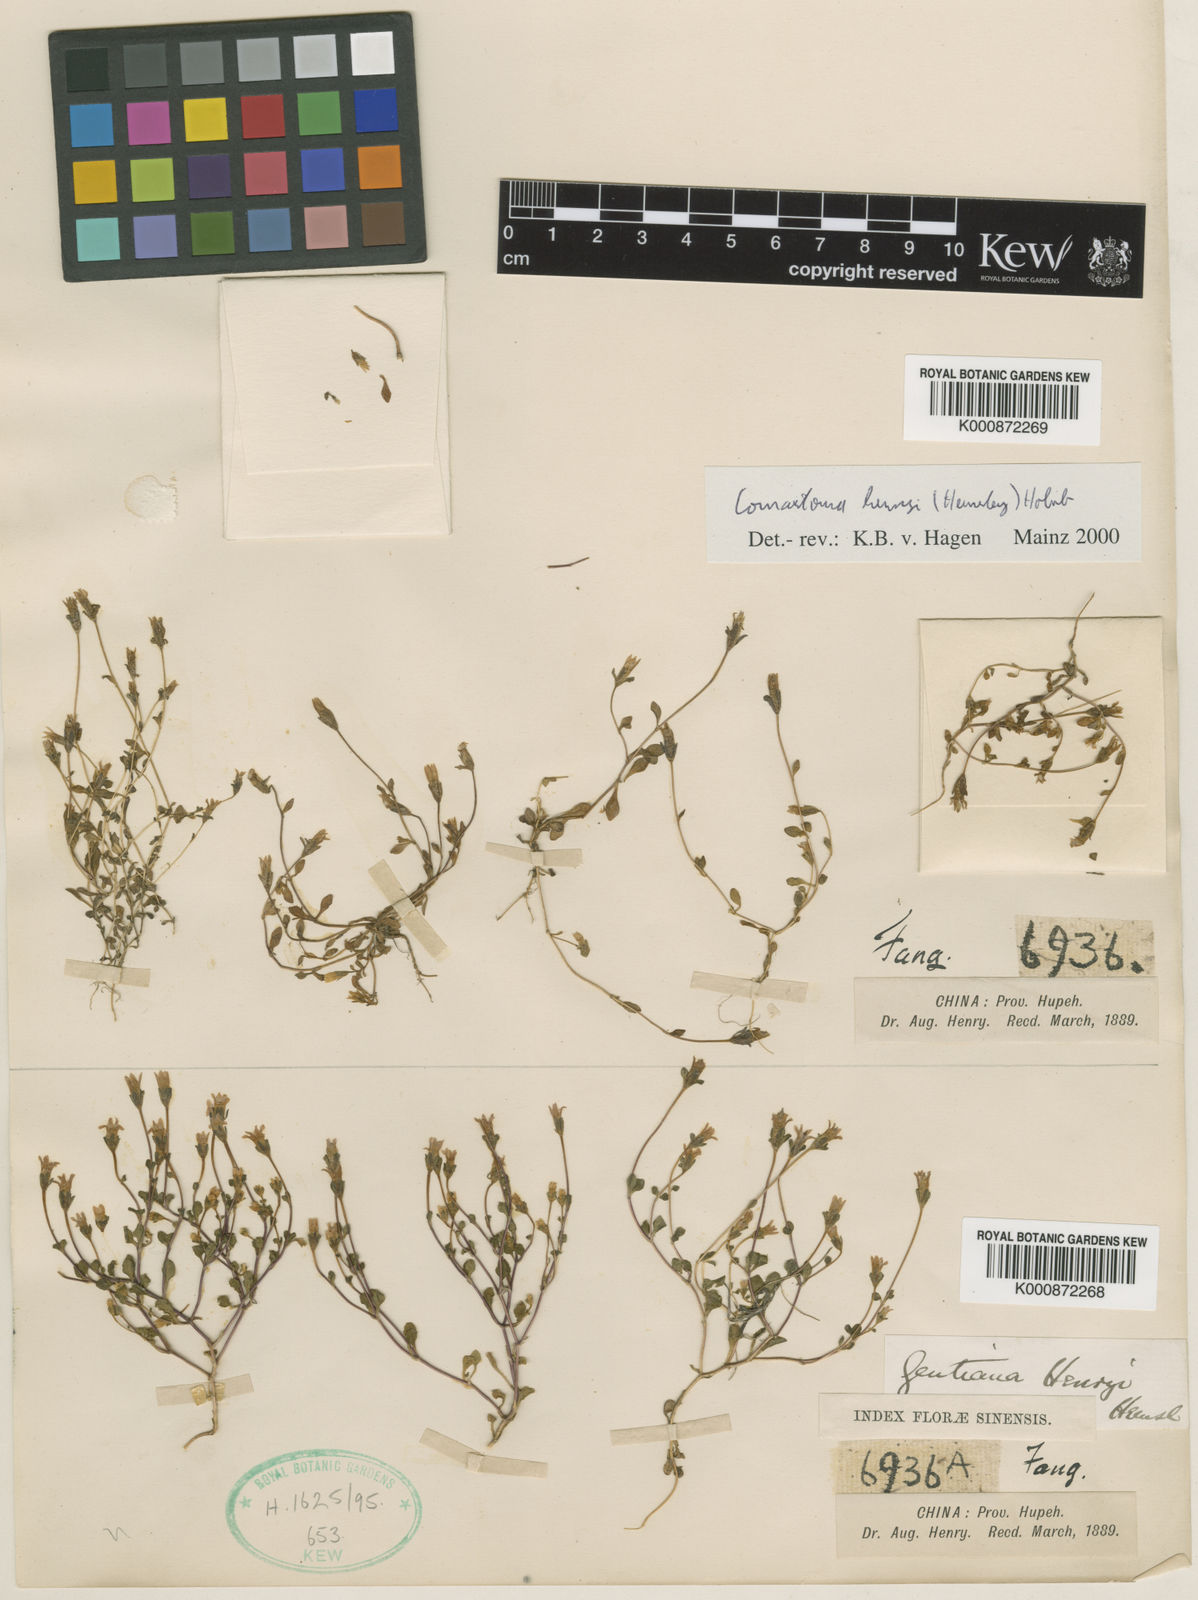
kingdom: Plantae
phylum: Tracheophyta
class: Magnoliopsida
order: Gentianales
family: Gentianaceae
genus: Comastoma
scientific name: Comastoma henryi
